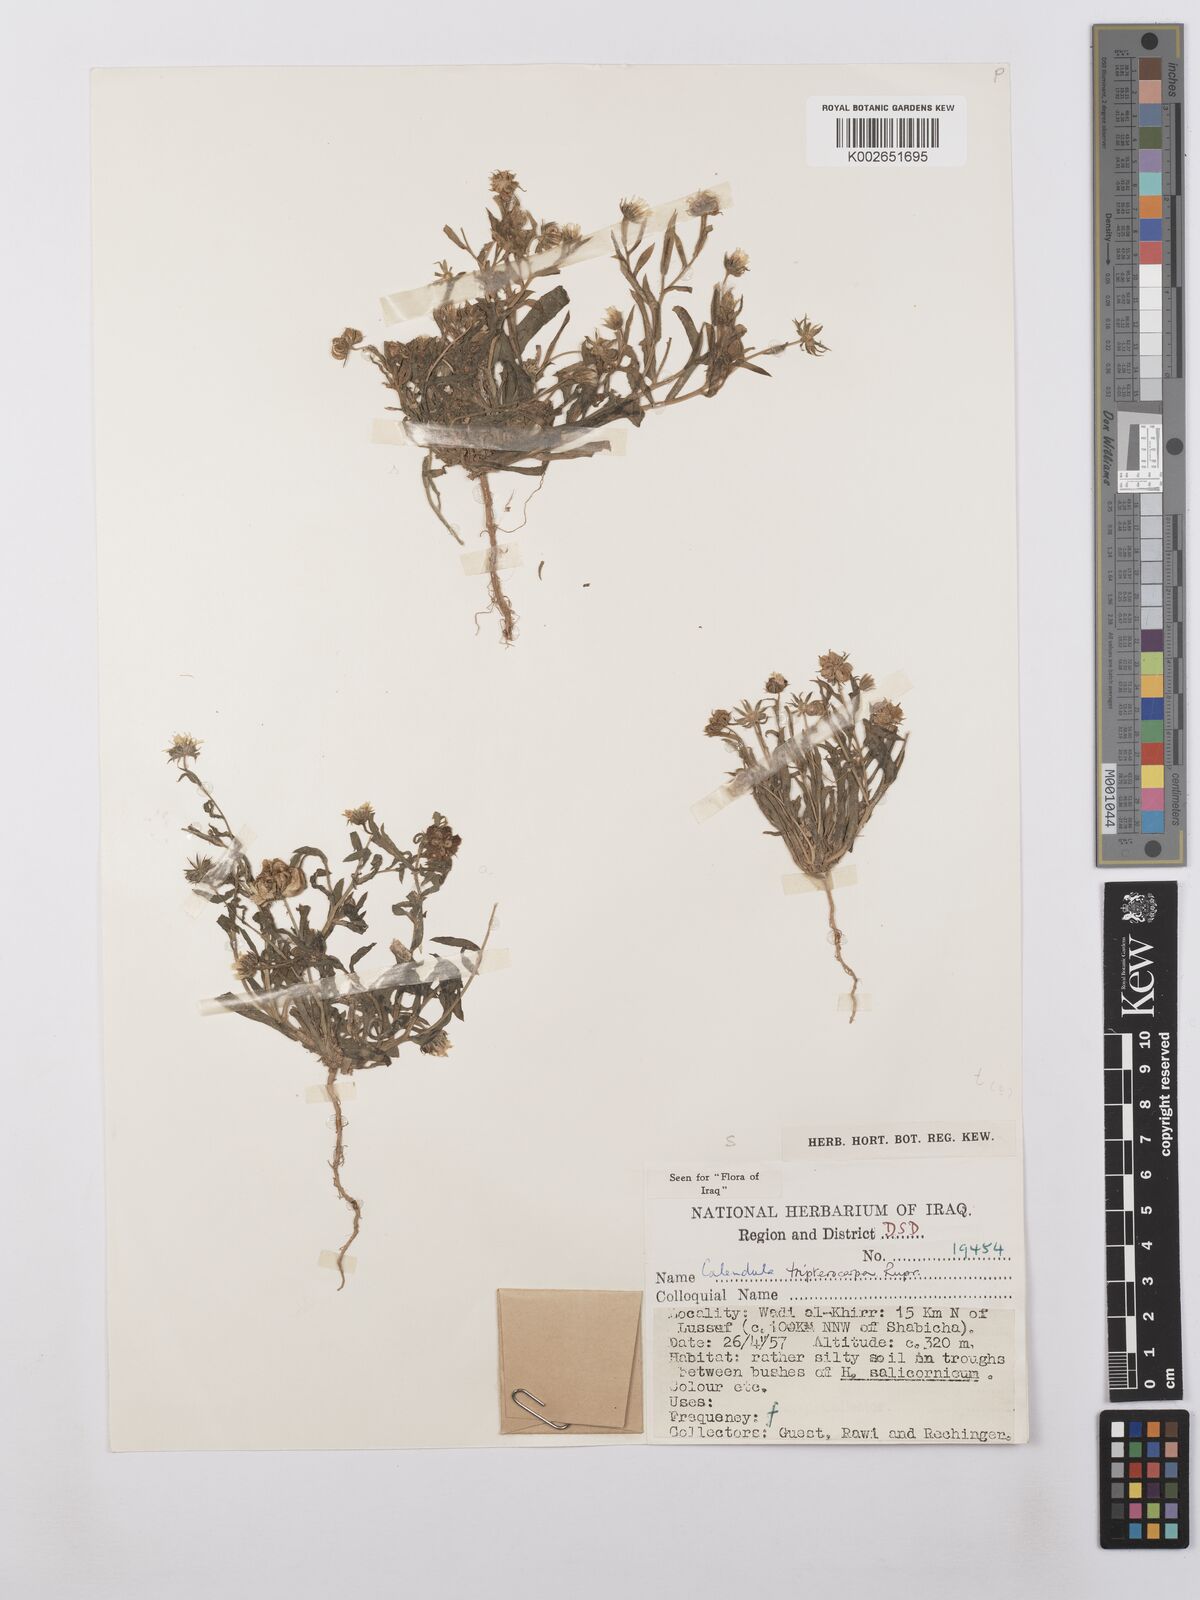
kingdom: Plantae
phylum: Tracheophyta
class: Magnoliopsida
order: Asterales
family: Asteraceae
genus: Calendula
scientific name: Calendula tripterocarpa
